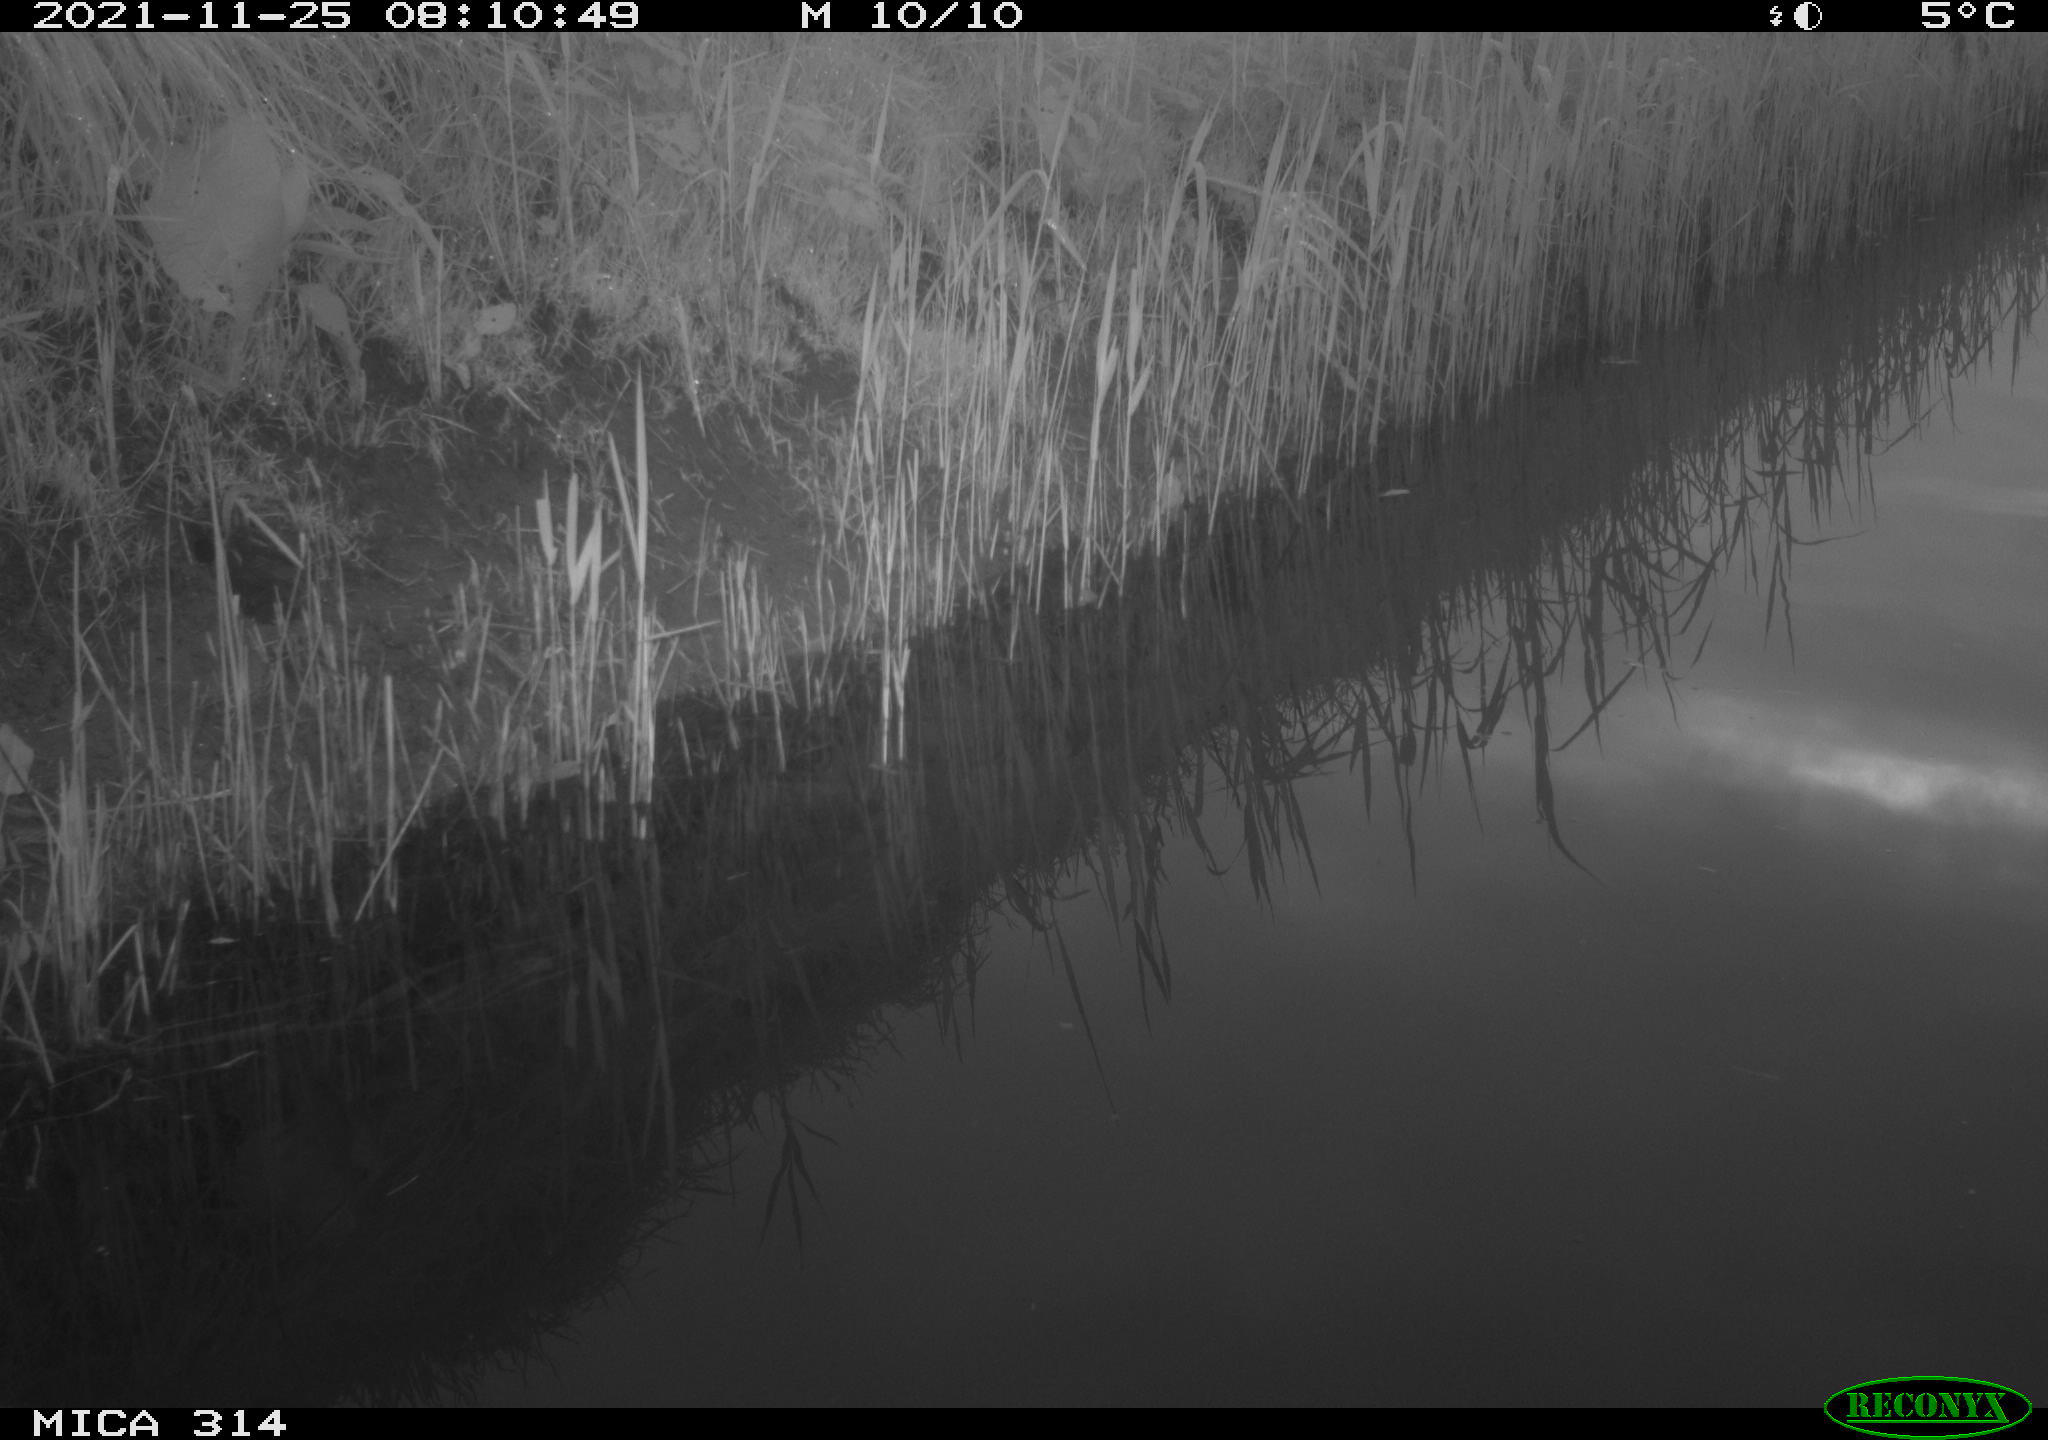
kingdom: Animalia
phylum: Chordata
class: Mammalia
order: Rodentia
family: Muridae
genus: Rattus
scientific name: Rattus norvegicus
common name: Brown rat
